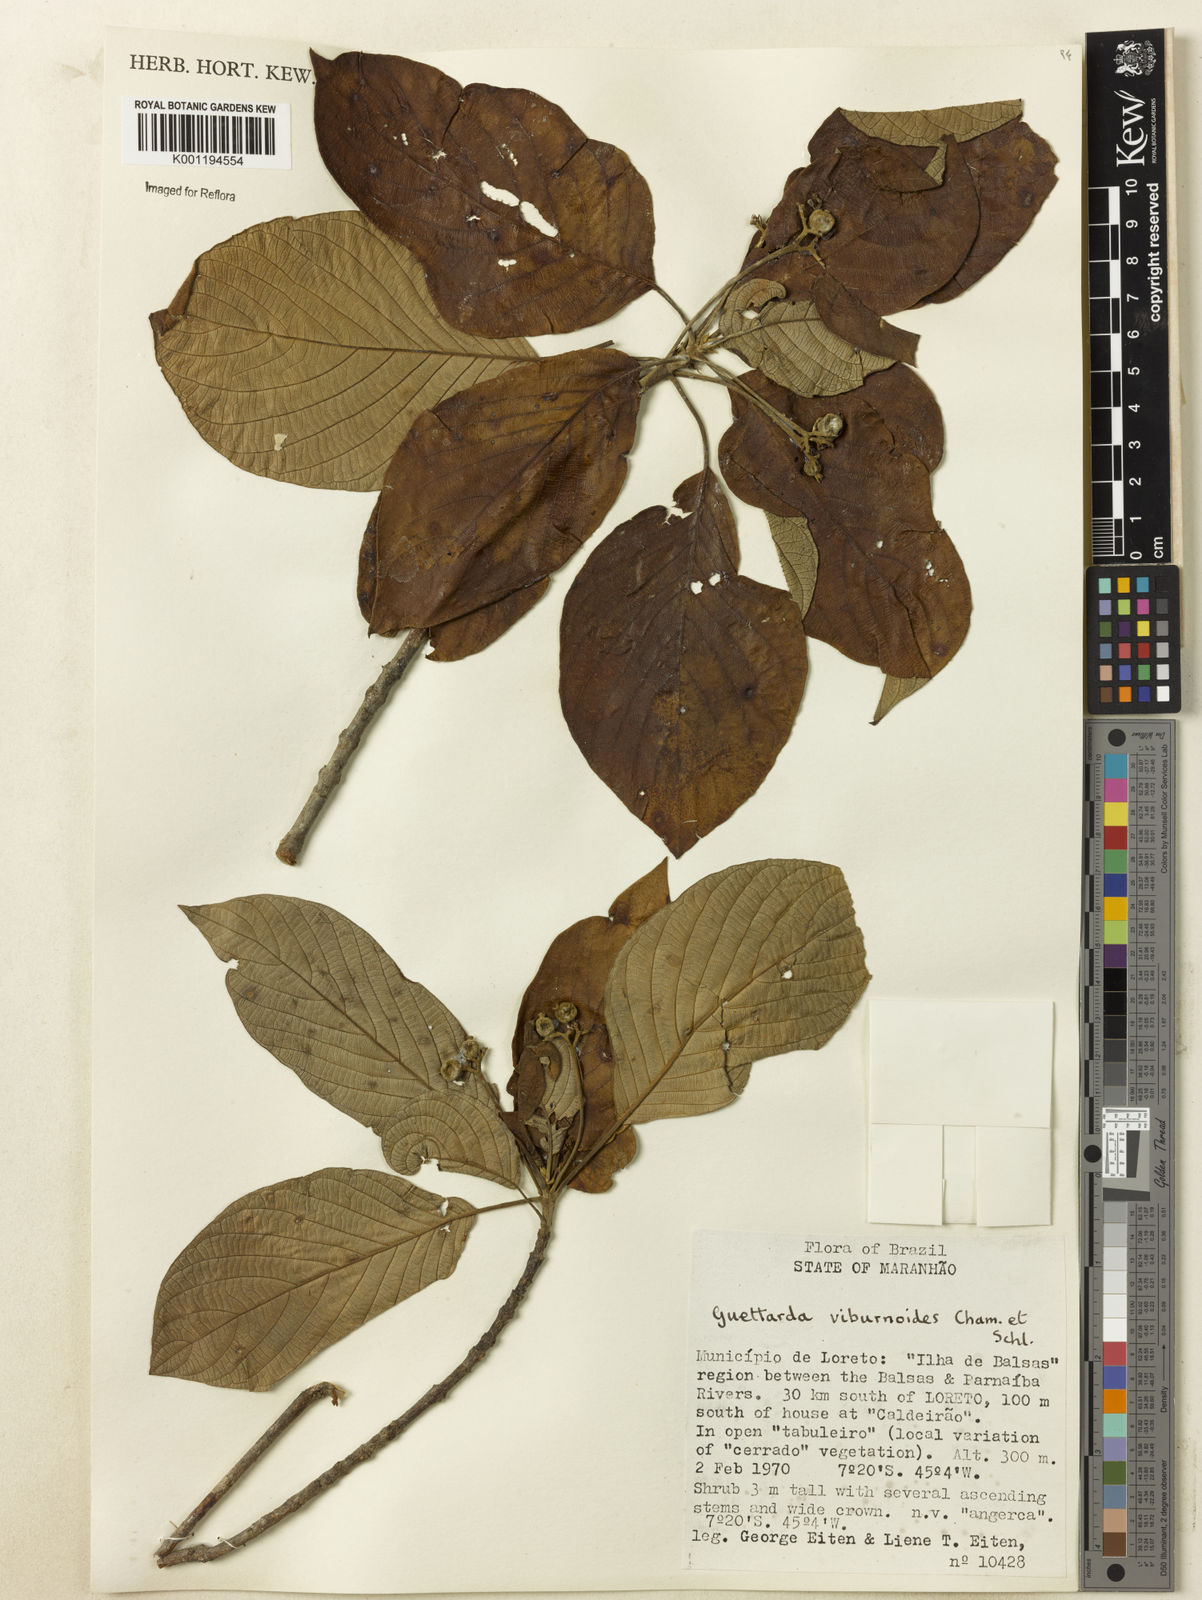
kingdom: Plantae
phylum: Tracheophyta
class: Magnoliopsida
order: Gentianales
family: Rubiaceae
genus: Guettarda
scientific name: Guettarda viburnoides
